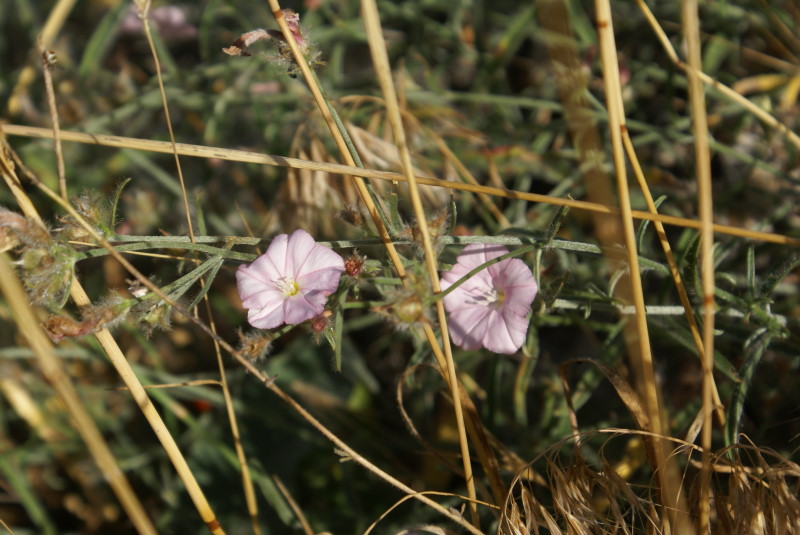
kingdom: Plantae
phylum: Tracheophyta
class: Magnoliopsida
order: Solanales
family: Convolvulaceae
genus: Convolvulus
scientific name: Convolvulus cantabrica
